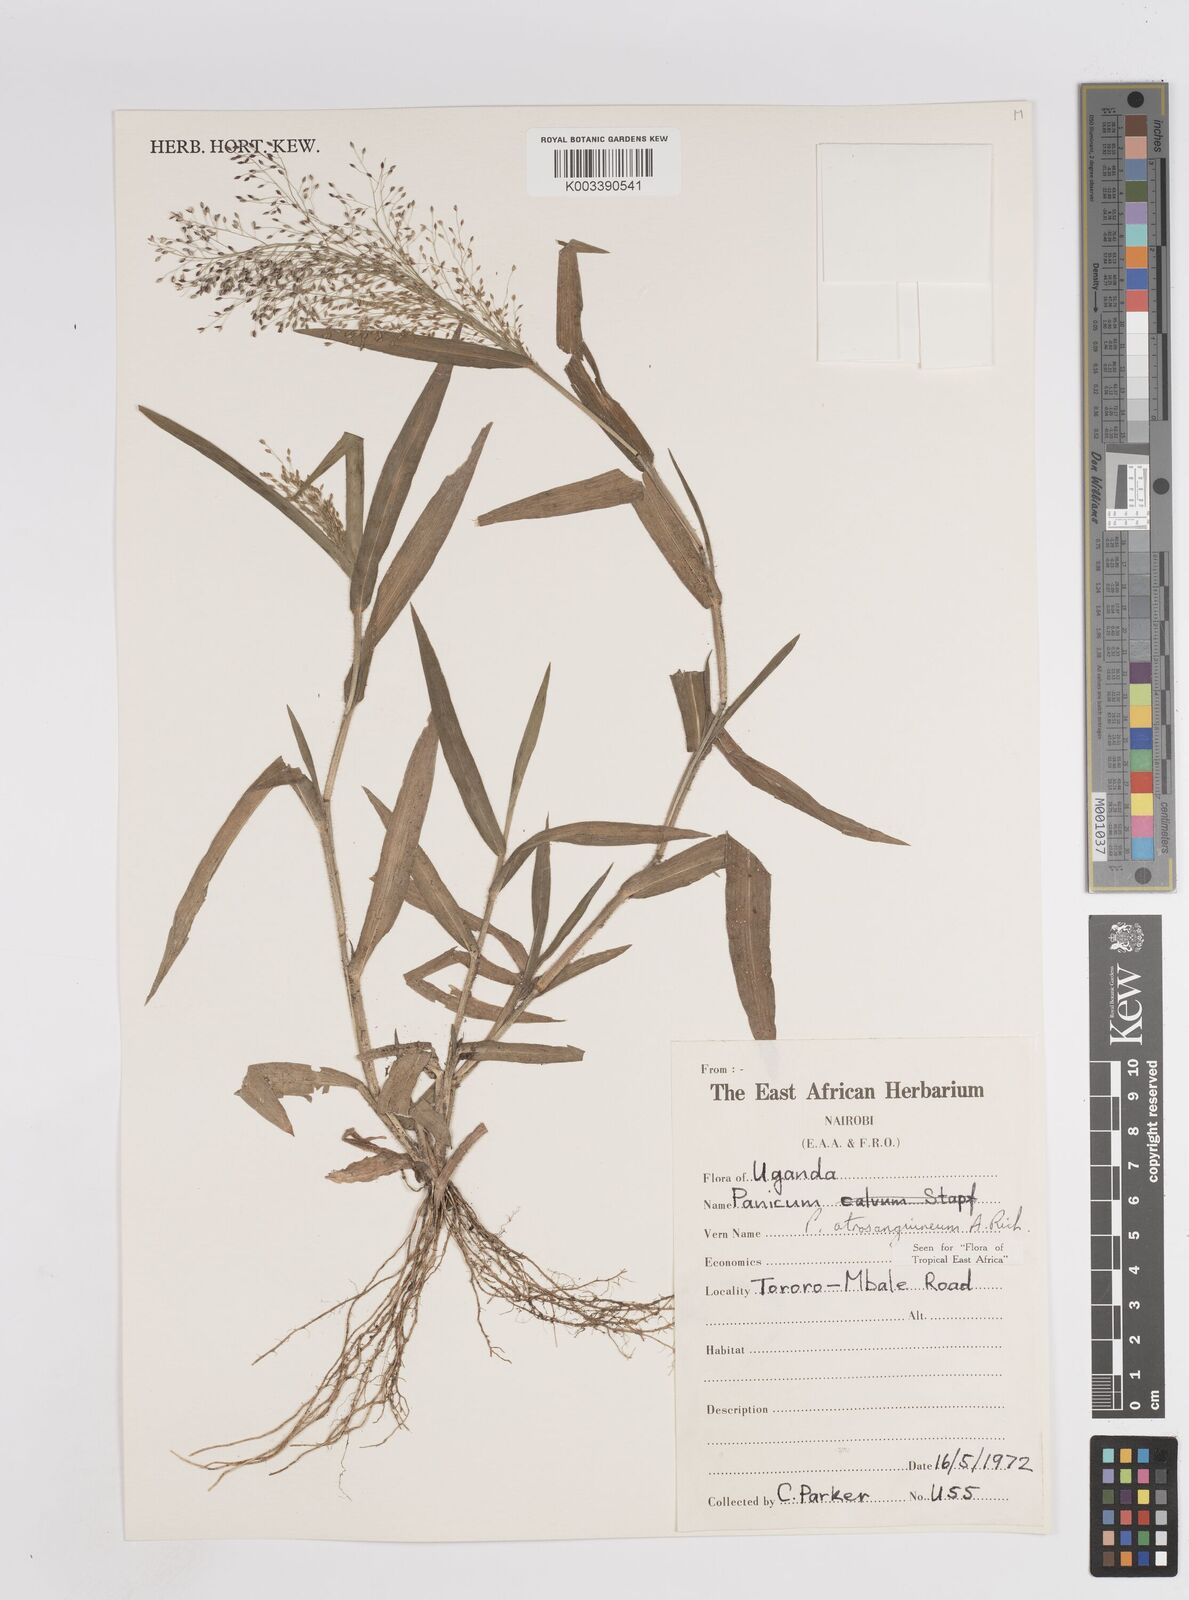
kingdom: Plantae
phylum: Tracheophyta
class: Liliopsida
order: Poales
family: Poaceae
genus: Panicum
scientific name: Panicum atrosanguineum
